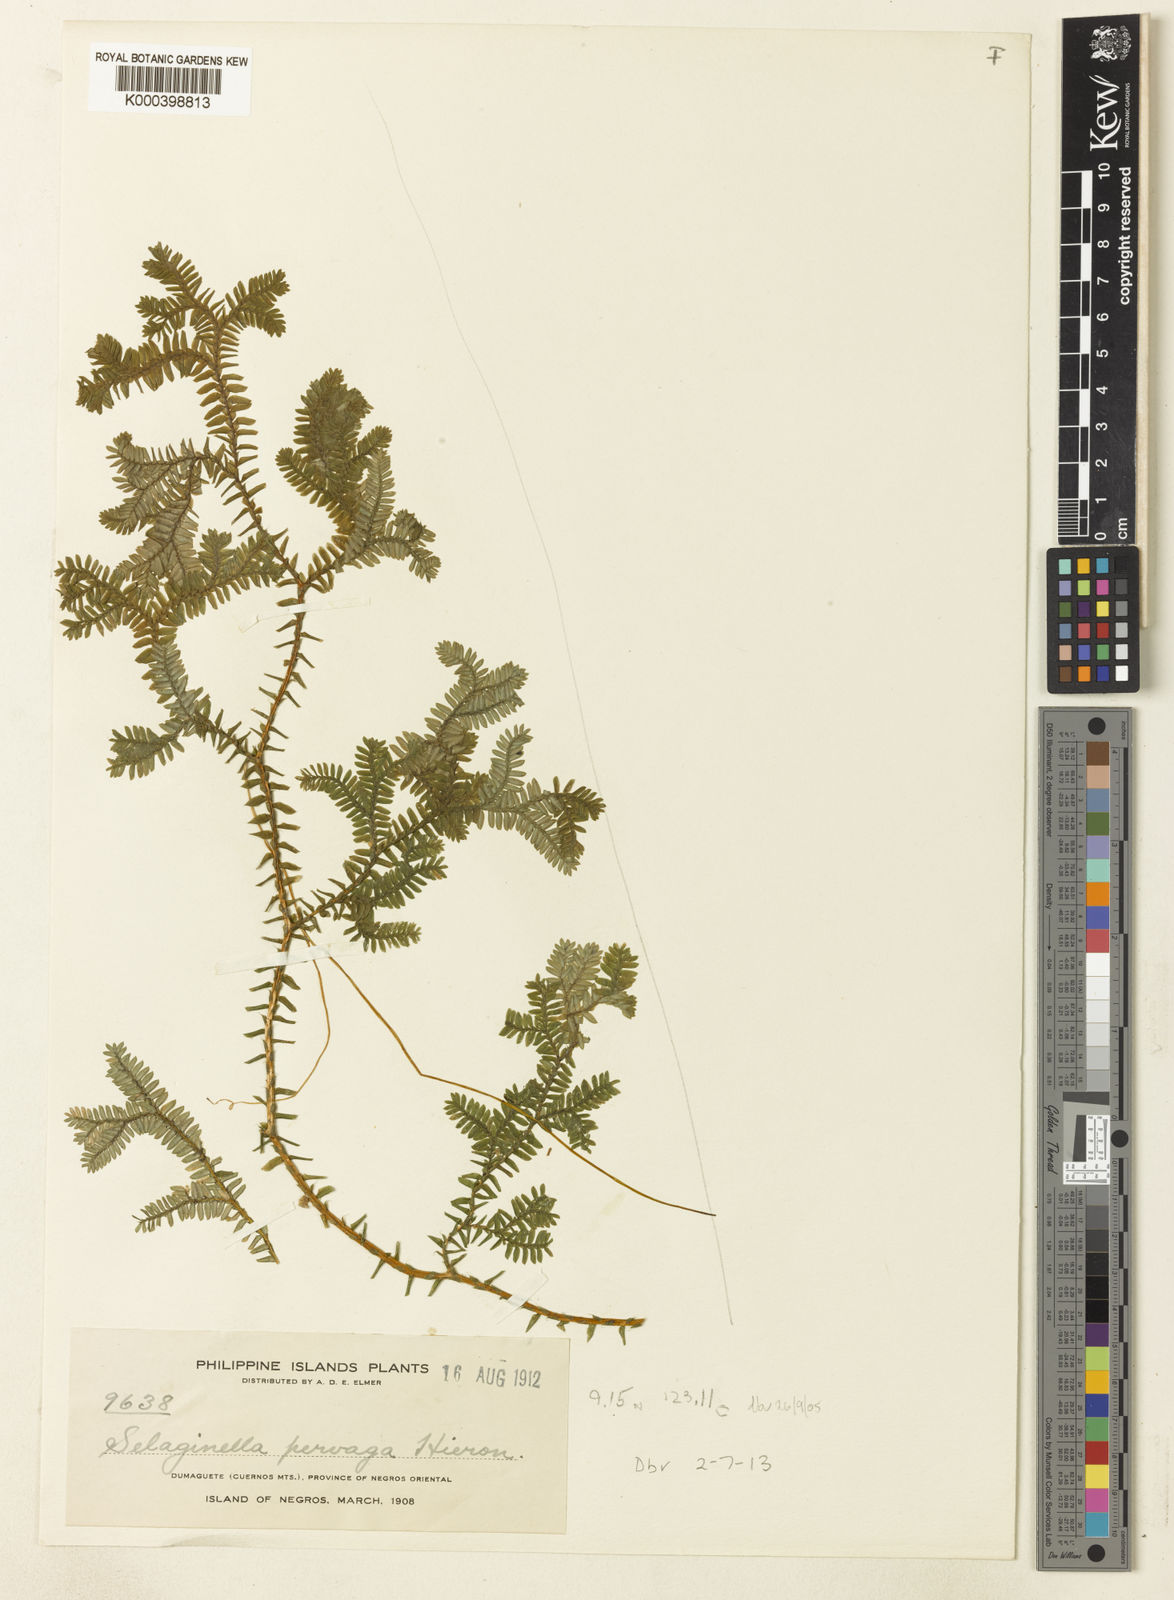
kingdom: Plantae
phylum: Tracheophyta
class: Lycopodiopsida
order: Selaginellales
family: Selaginellaceae
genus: Selaginella
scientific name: Selaginella
